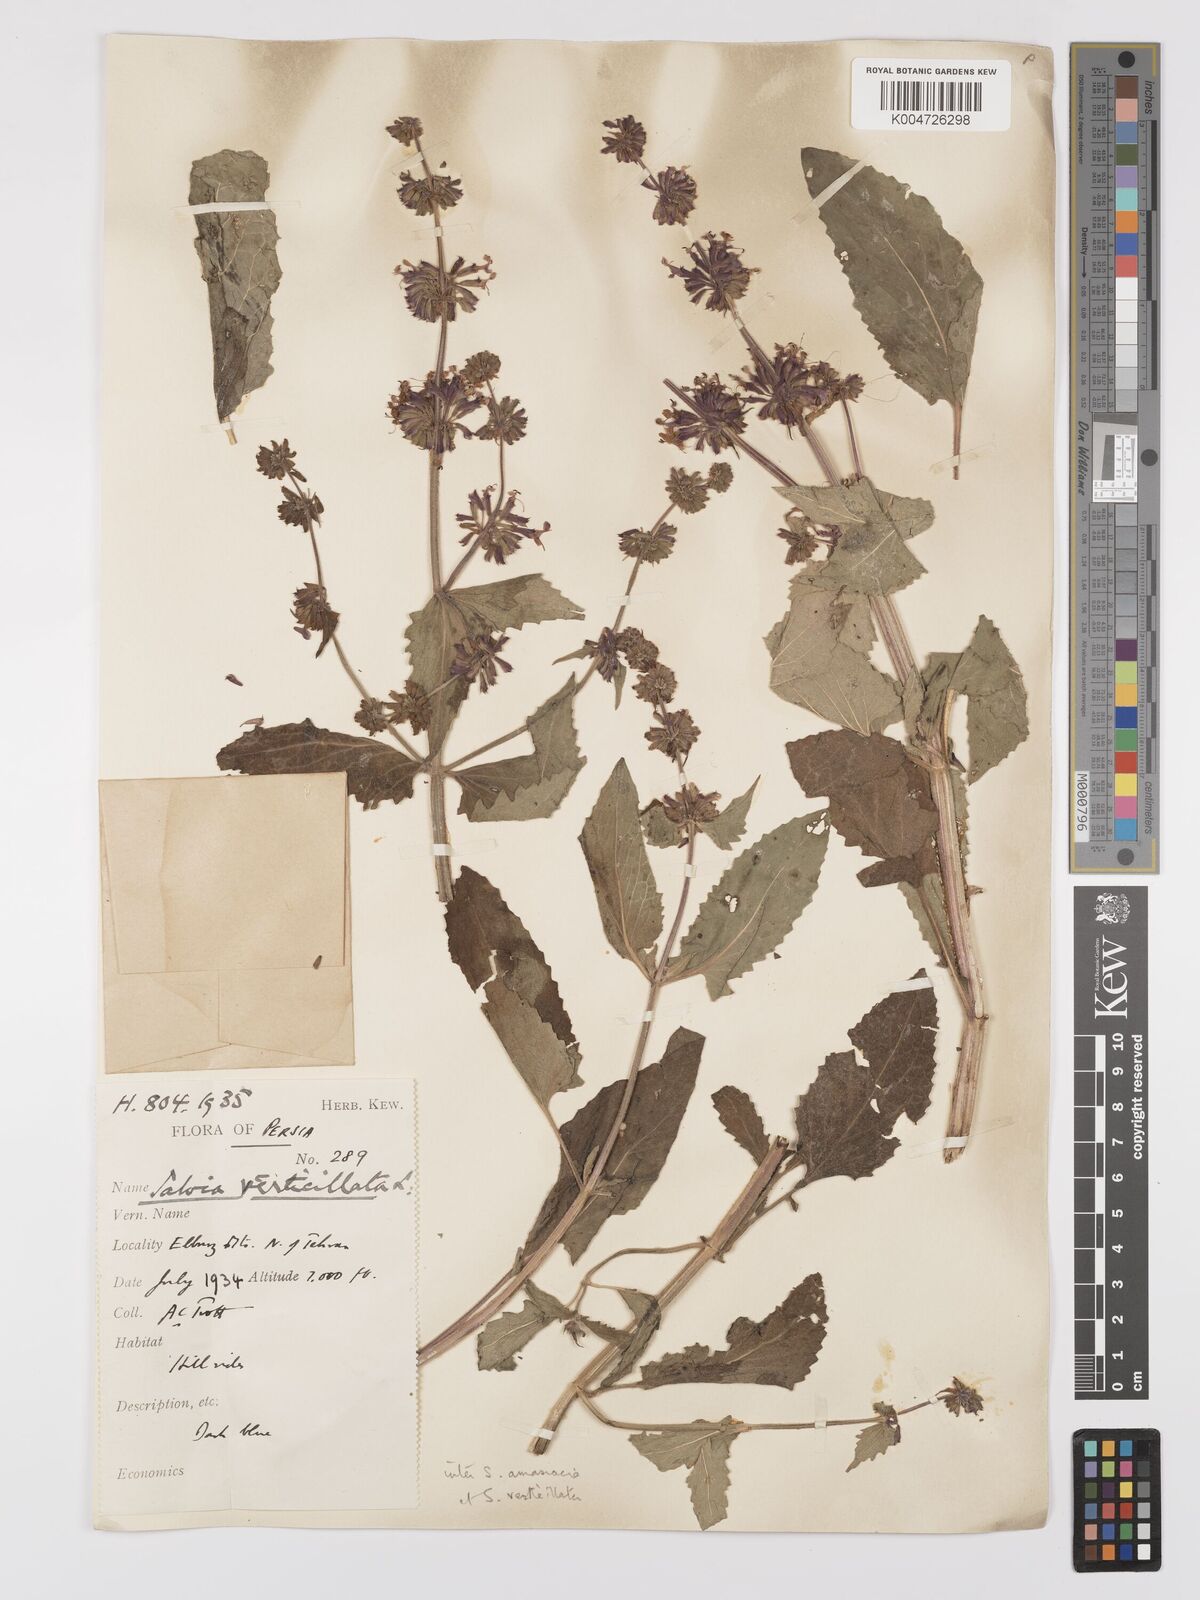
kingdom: Plantae
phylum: Tracheophyta
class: Magnoliopsida
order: Lamiales
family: Lamiaceae
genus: Salvia
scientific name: Salvia verticillata
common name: Whorled clary
